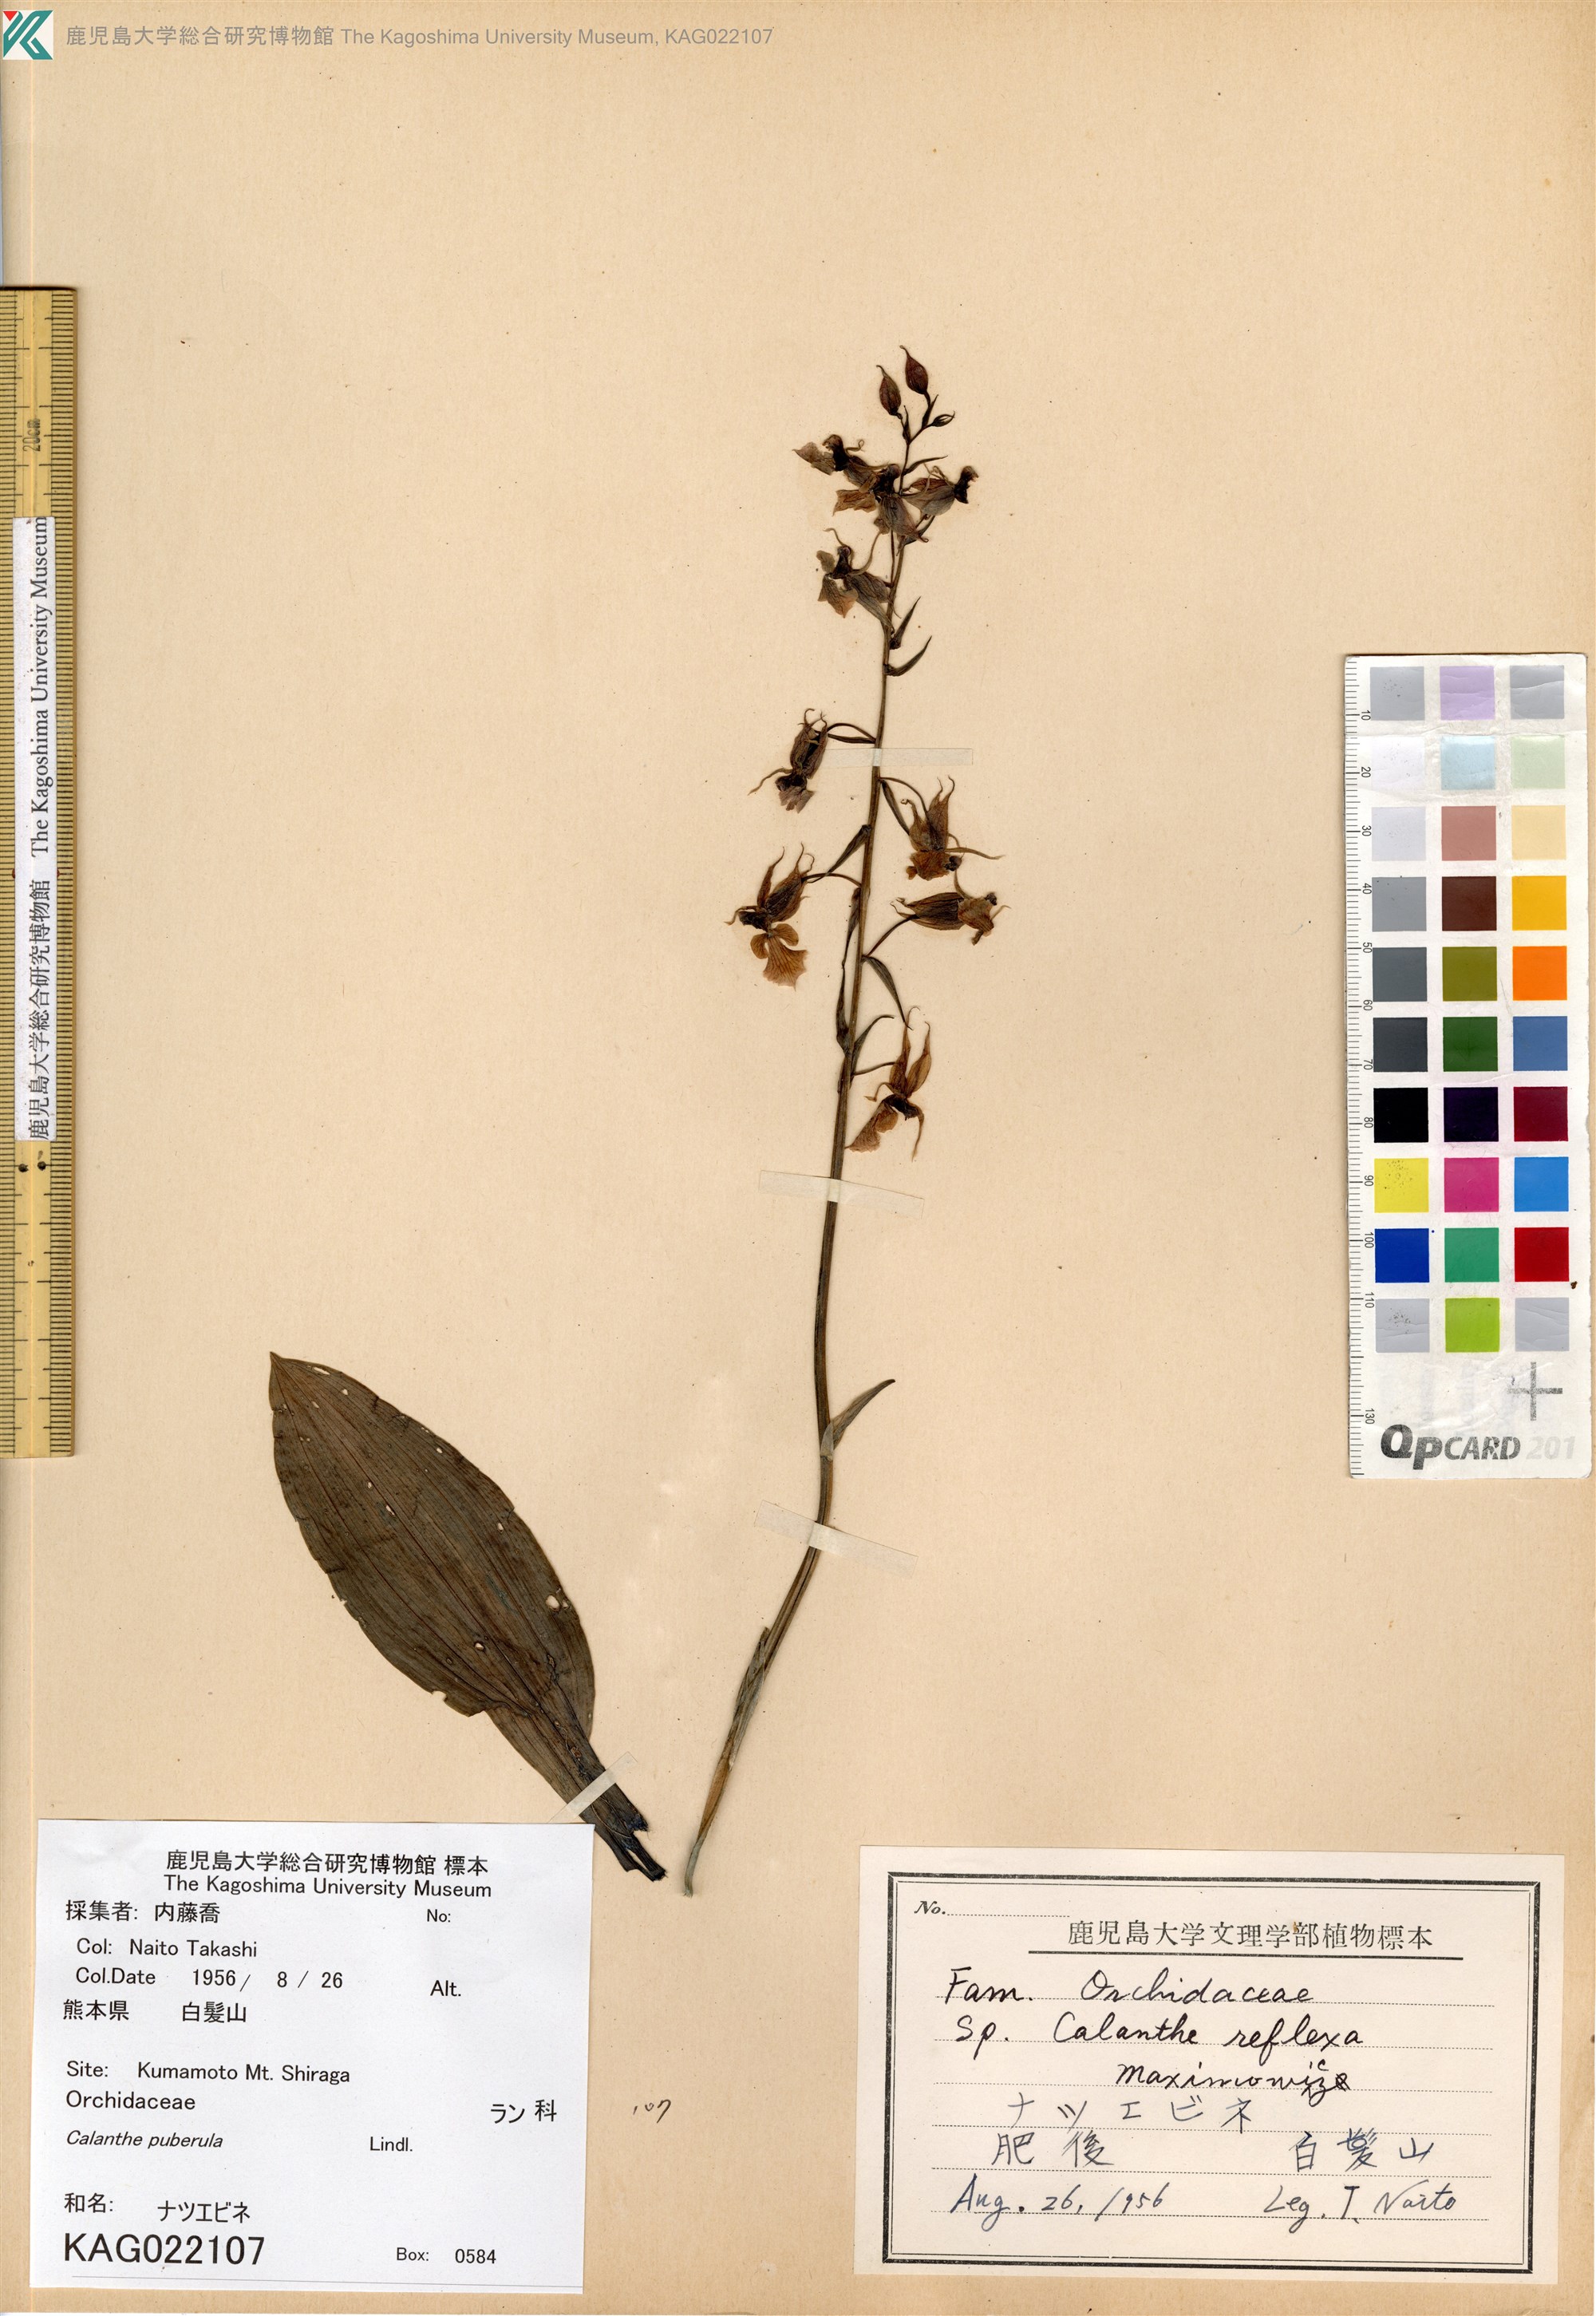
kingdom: Plantae
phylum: Tracheophyta
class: Liliopsida
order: Asparagales
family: Orchidaceae
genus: Calanthe
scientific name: Calanthe puberula
